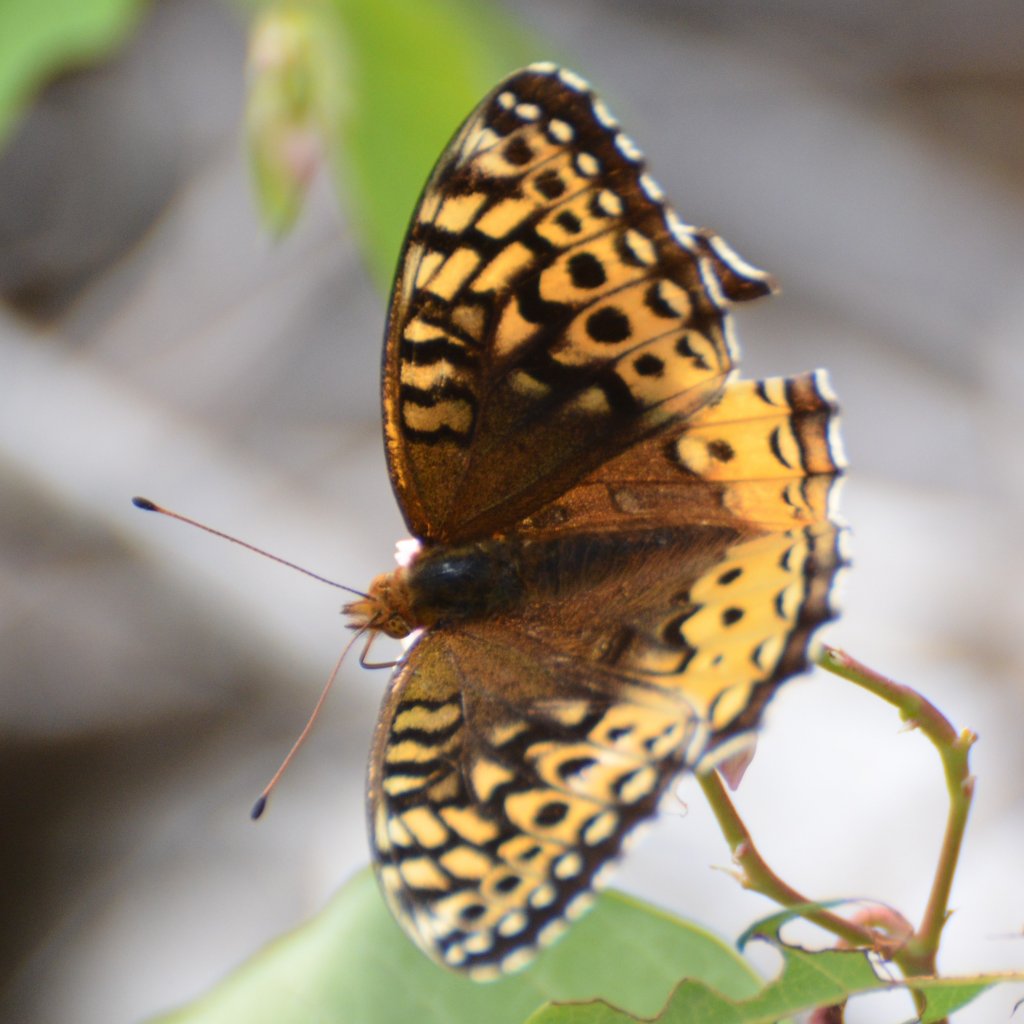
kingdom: Animalia
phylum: Arthropoda
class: Insecta
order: Lepidoptera
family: Nymphalidae
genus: Speyeria
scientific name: Speyeria cybele
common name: Great Spangled Fritillary
